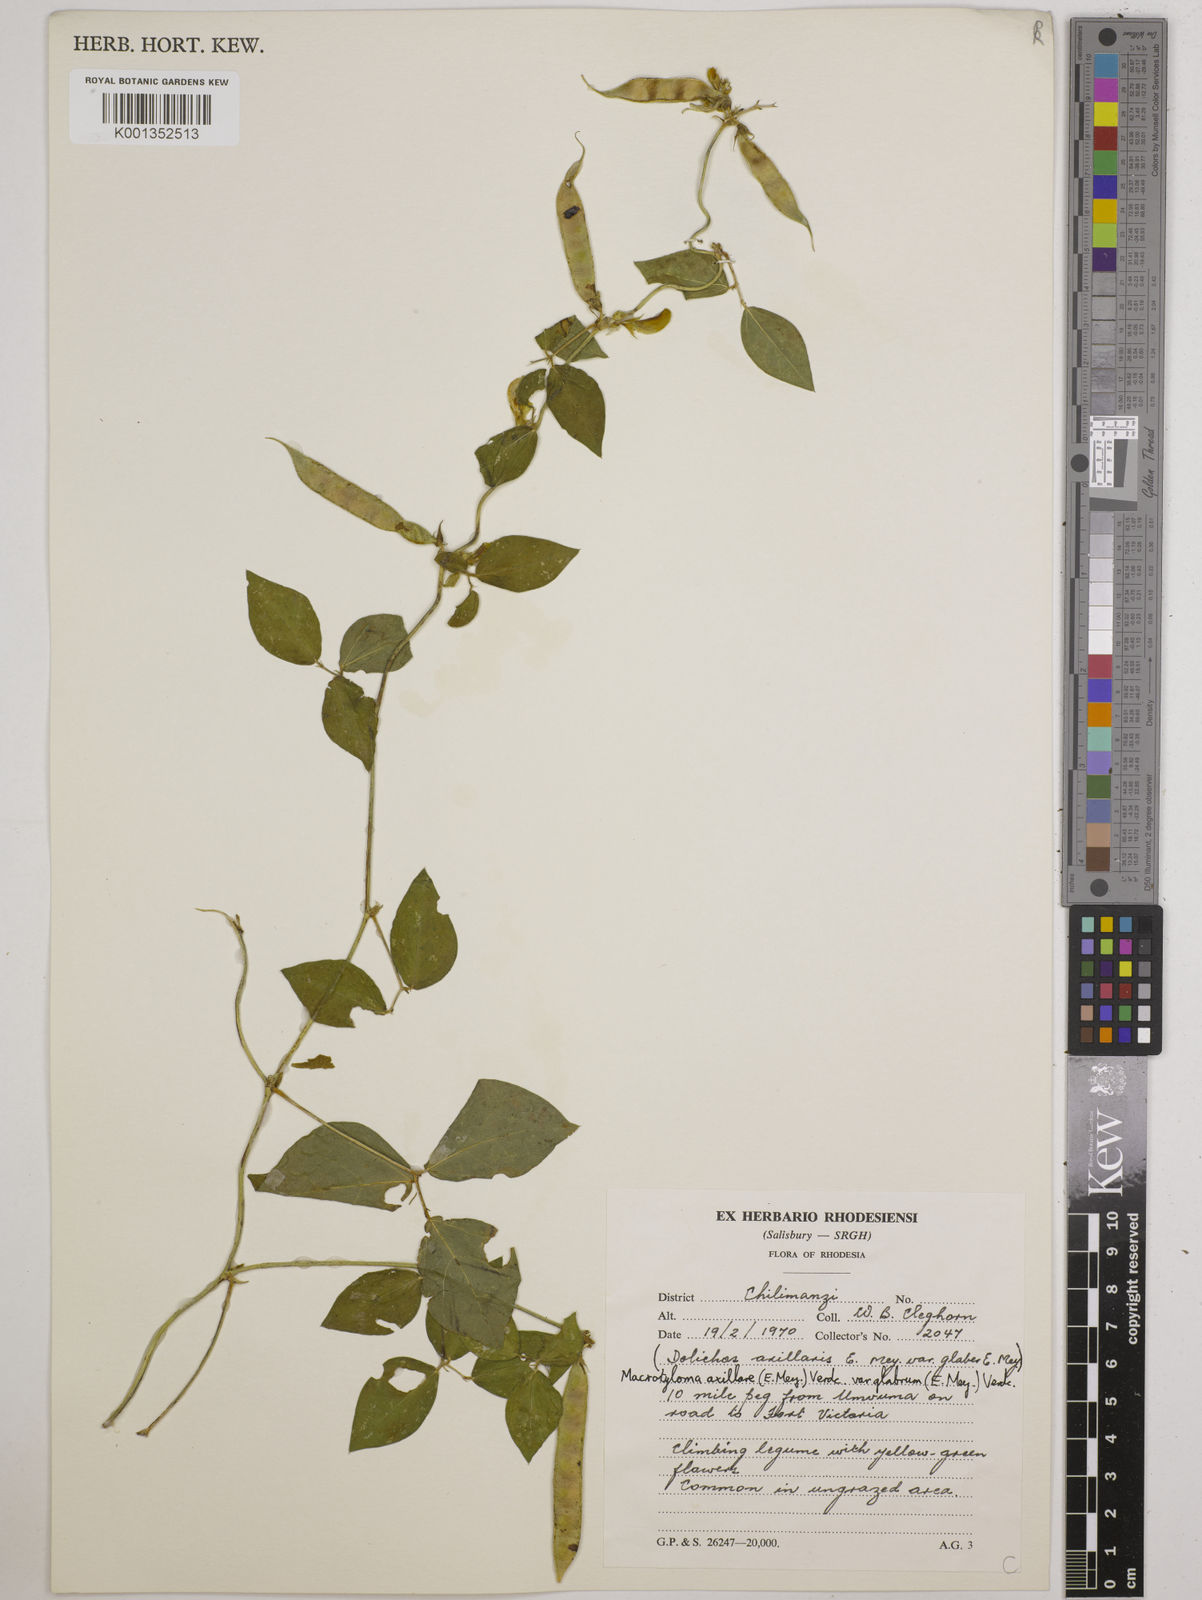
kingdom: Plantae
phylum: Tracheophyta
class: Magnoliopsida
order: Fabales
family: Fabaceae
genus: Macrotyloma
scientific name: Macrotyloma
